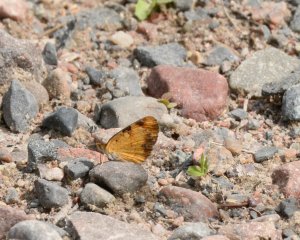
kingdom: Animalia
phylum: Arthropoda
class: Insecta
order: Lepidoptera
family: Nymphalidae
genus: Phyciodes
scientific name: Phyciodes tharos
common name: Northern Crescent
